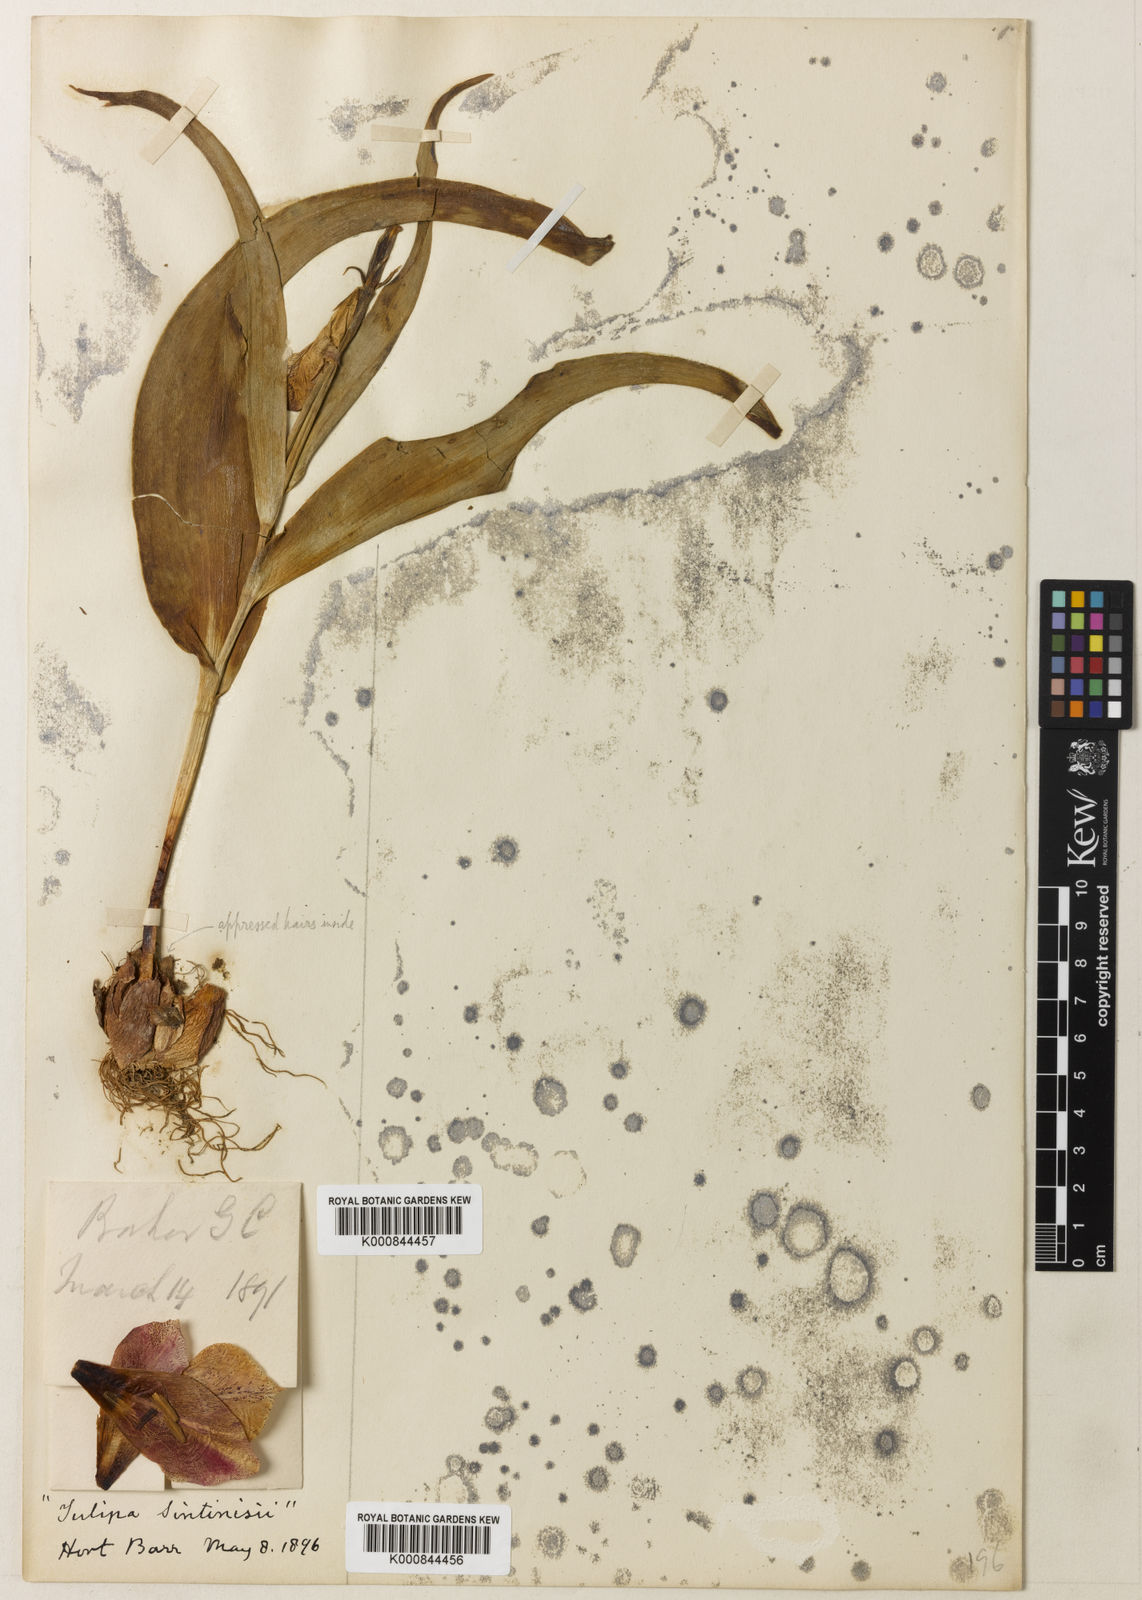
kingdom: Plantae
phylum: Tracheophyta
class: Liliopsida
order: Liliales
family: Liliaceae
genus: Tulipa
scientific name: Tulipa aleppensis
